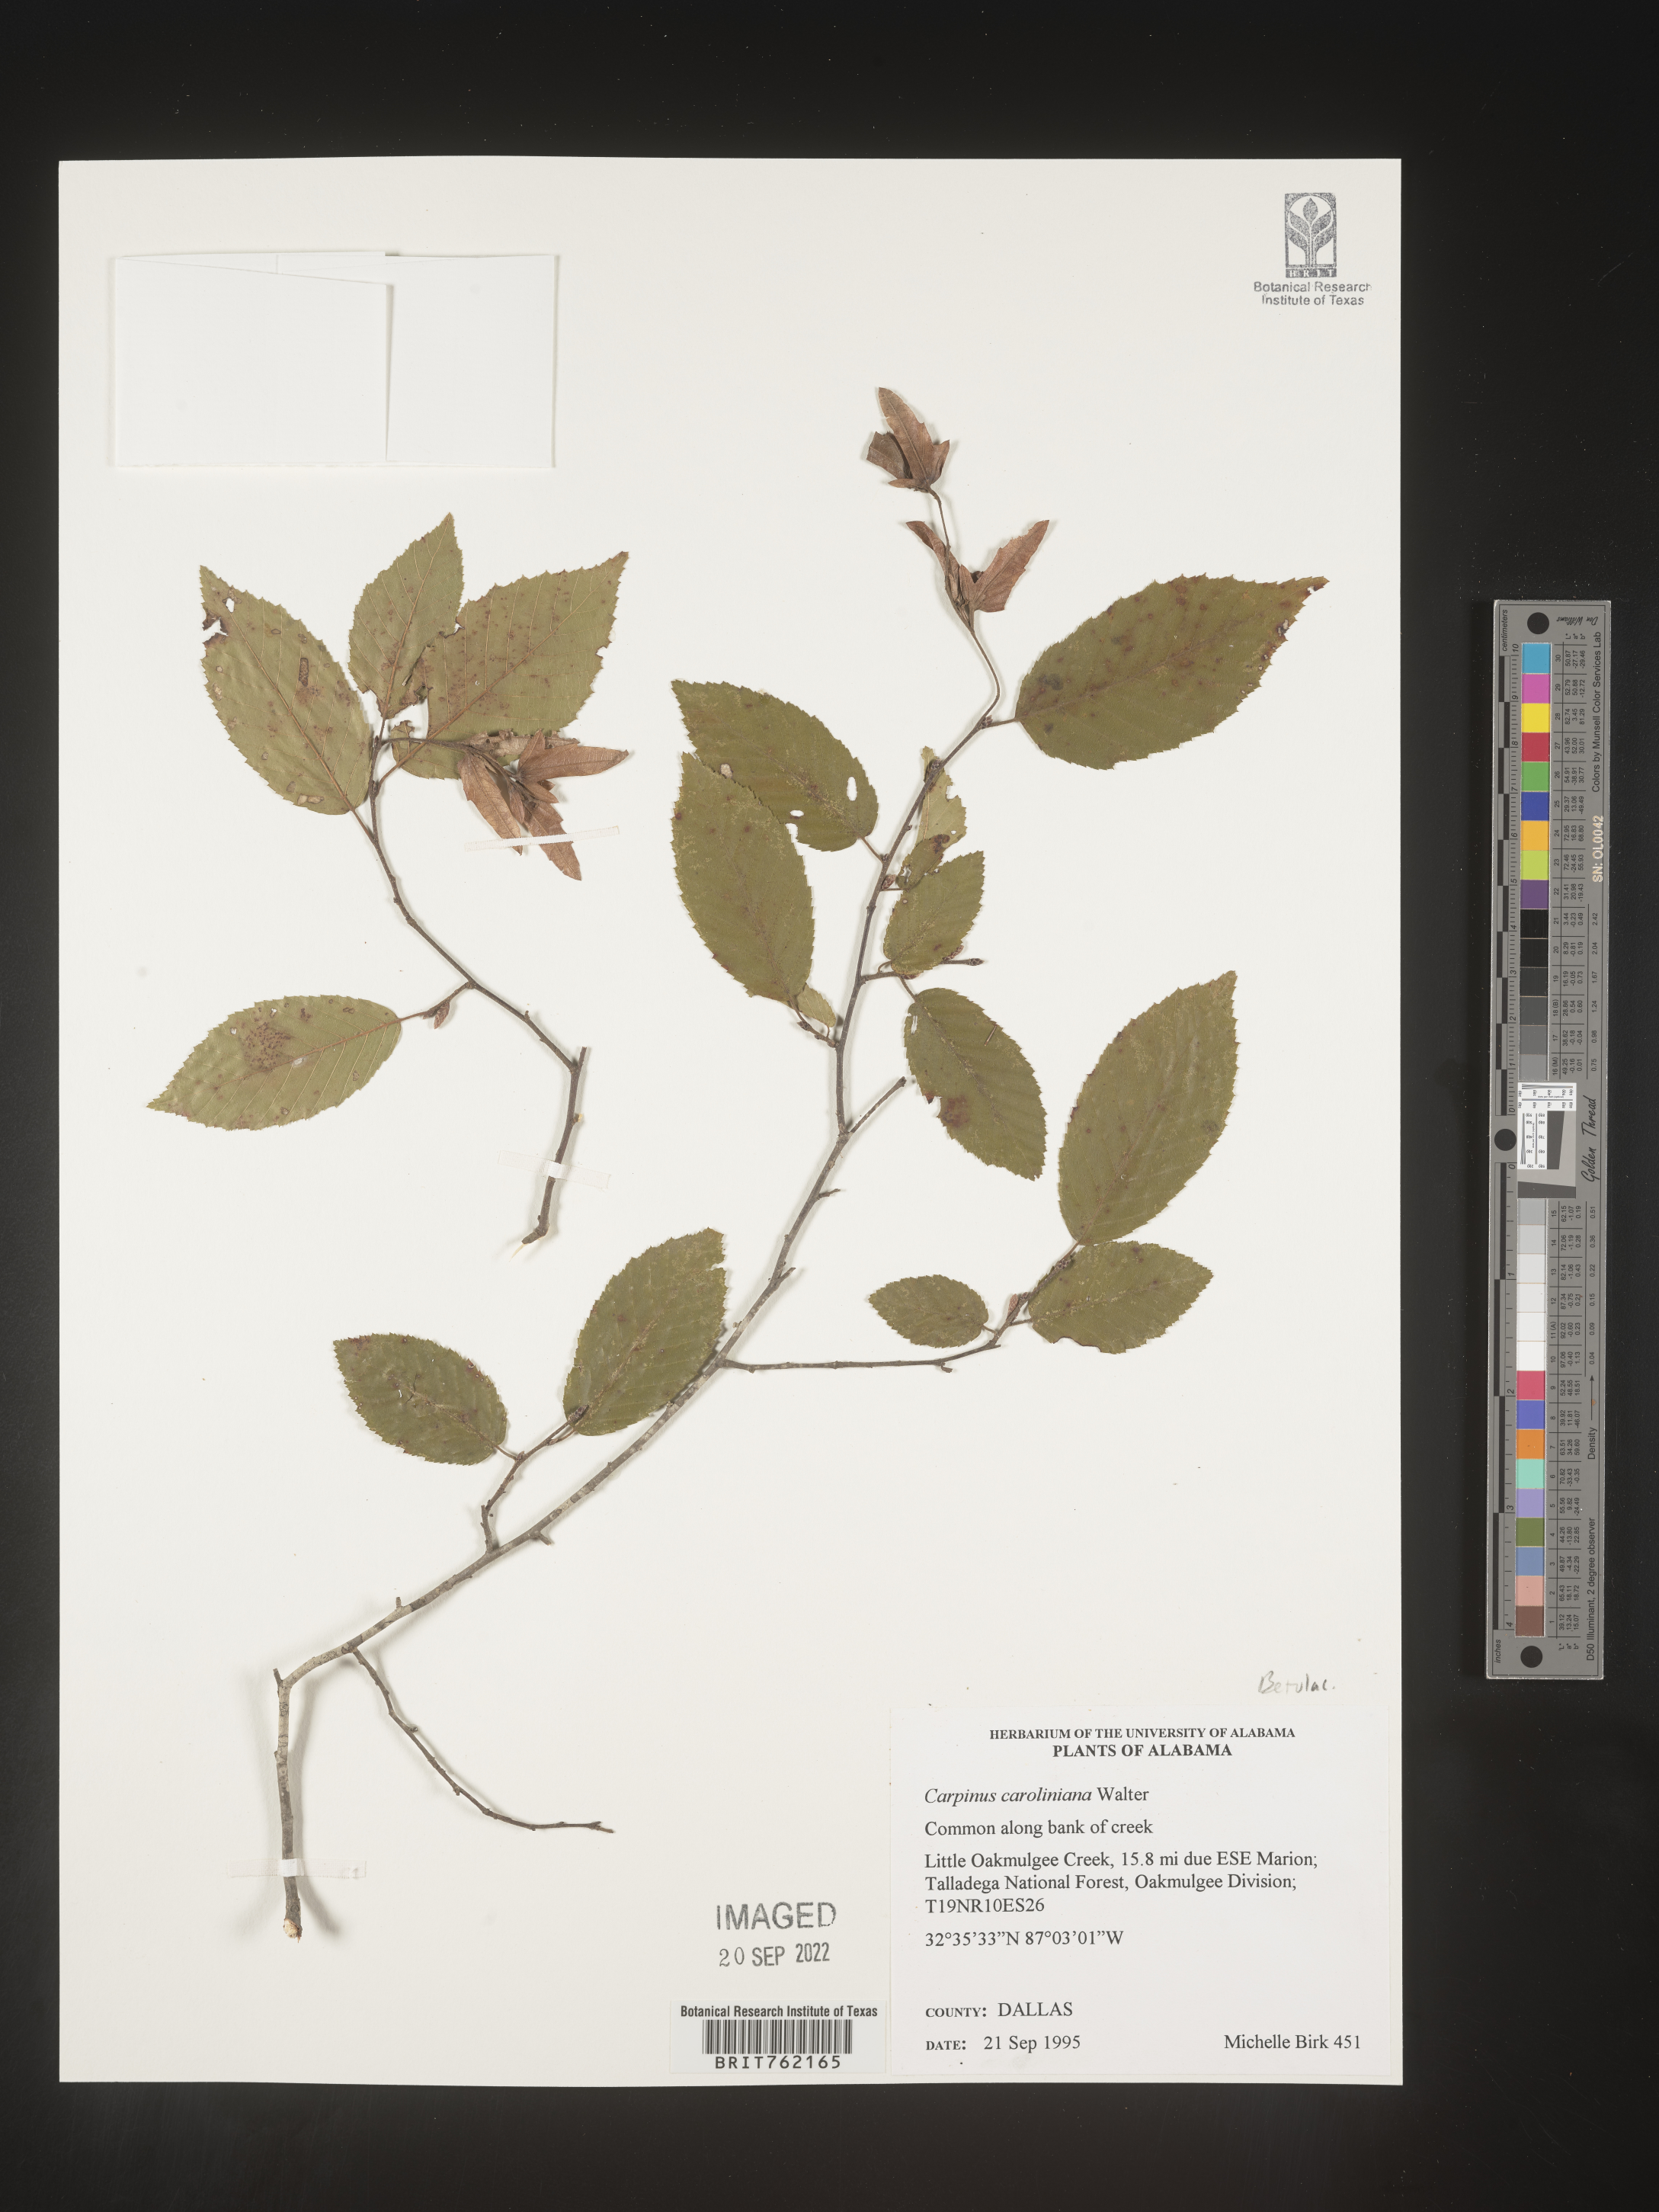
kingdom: Plantae
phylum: Tracheophyta
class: Magnoliopsida
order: Fagales
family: Betulaceae
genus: Carpinus
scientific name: Carpinus caroliniana
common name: American hornbeam
